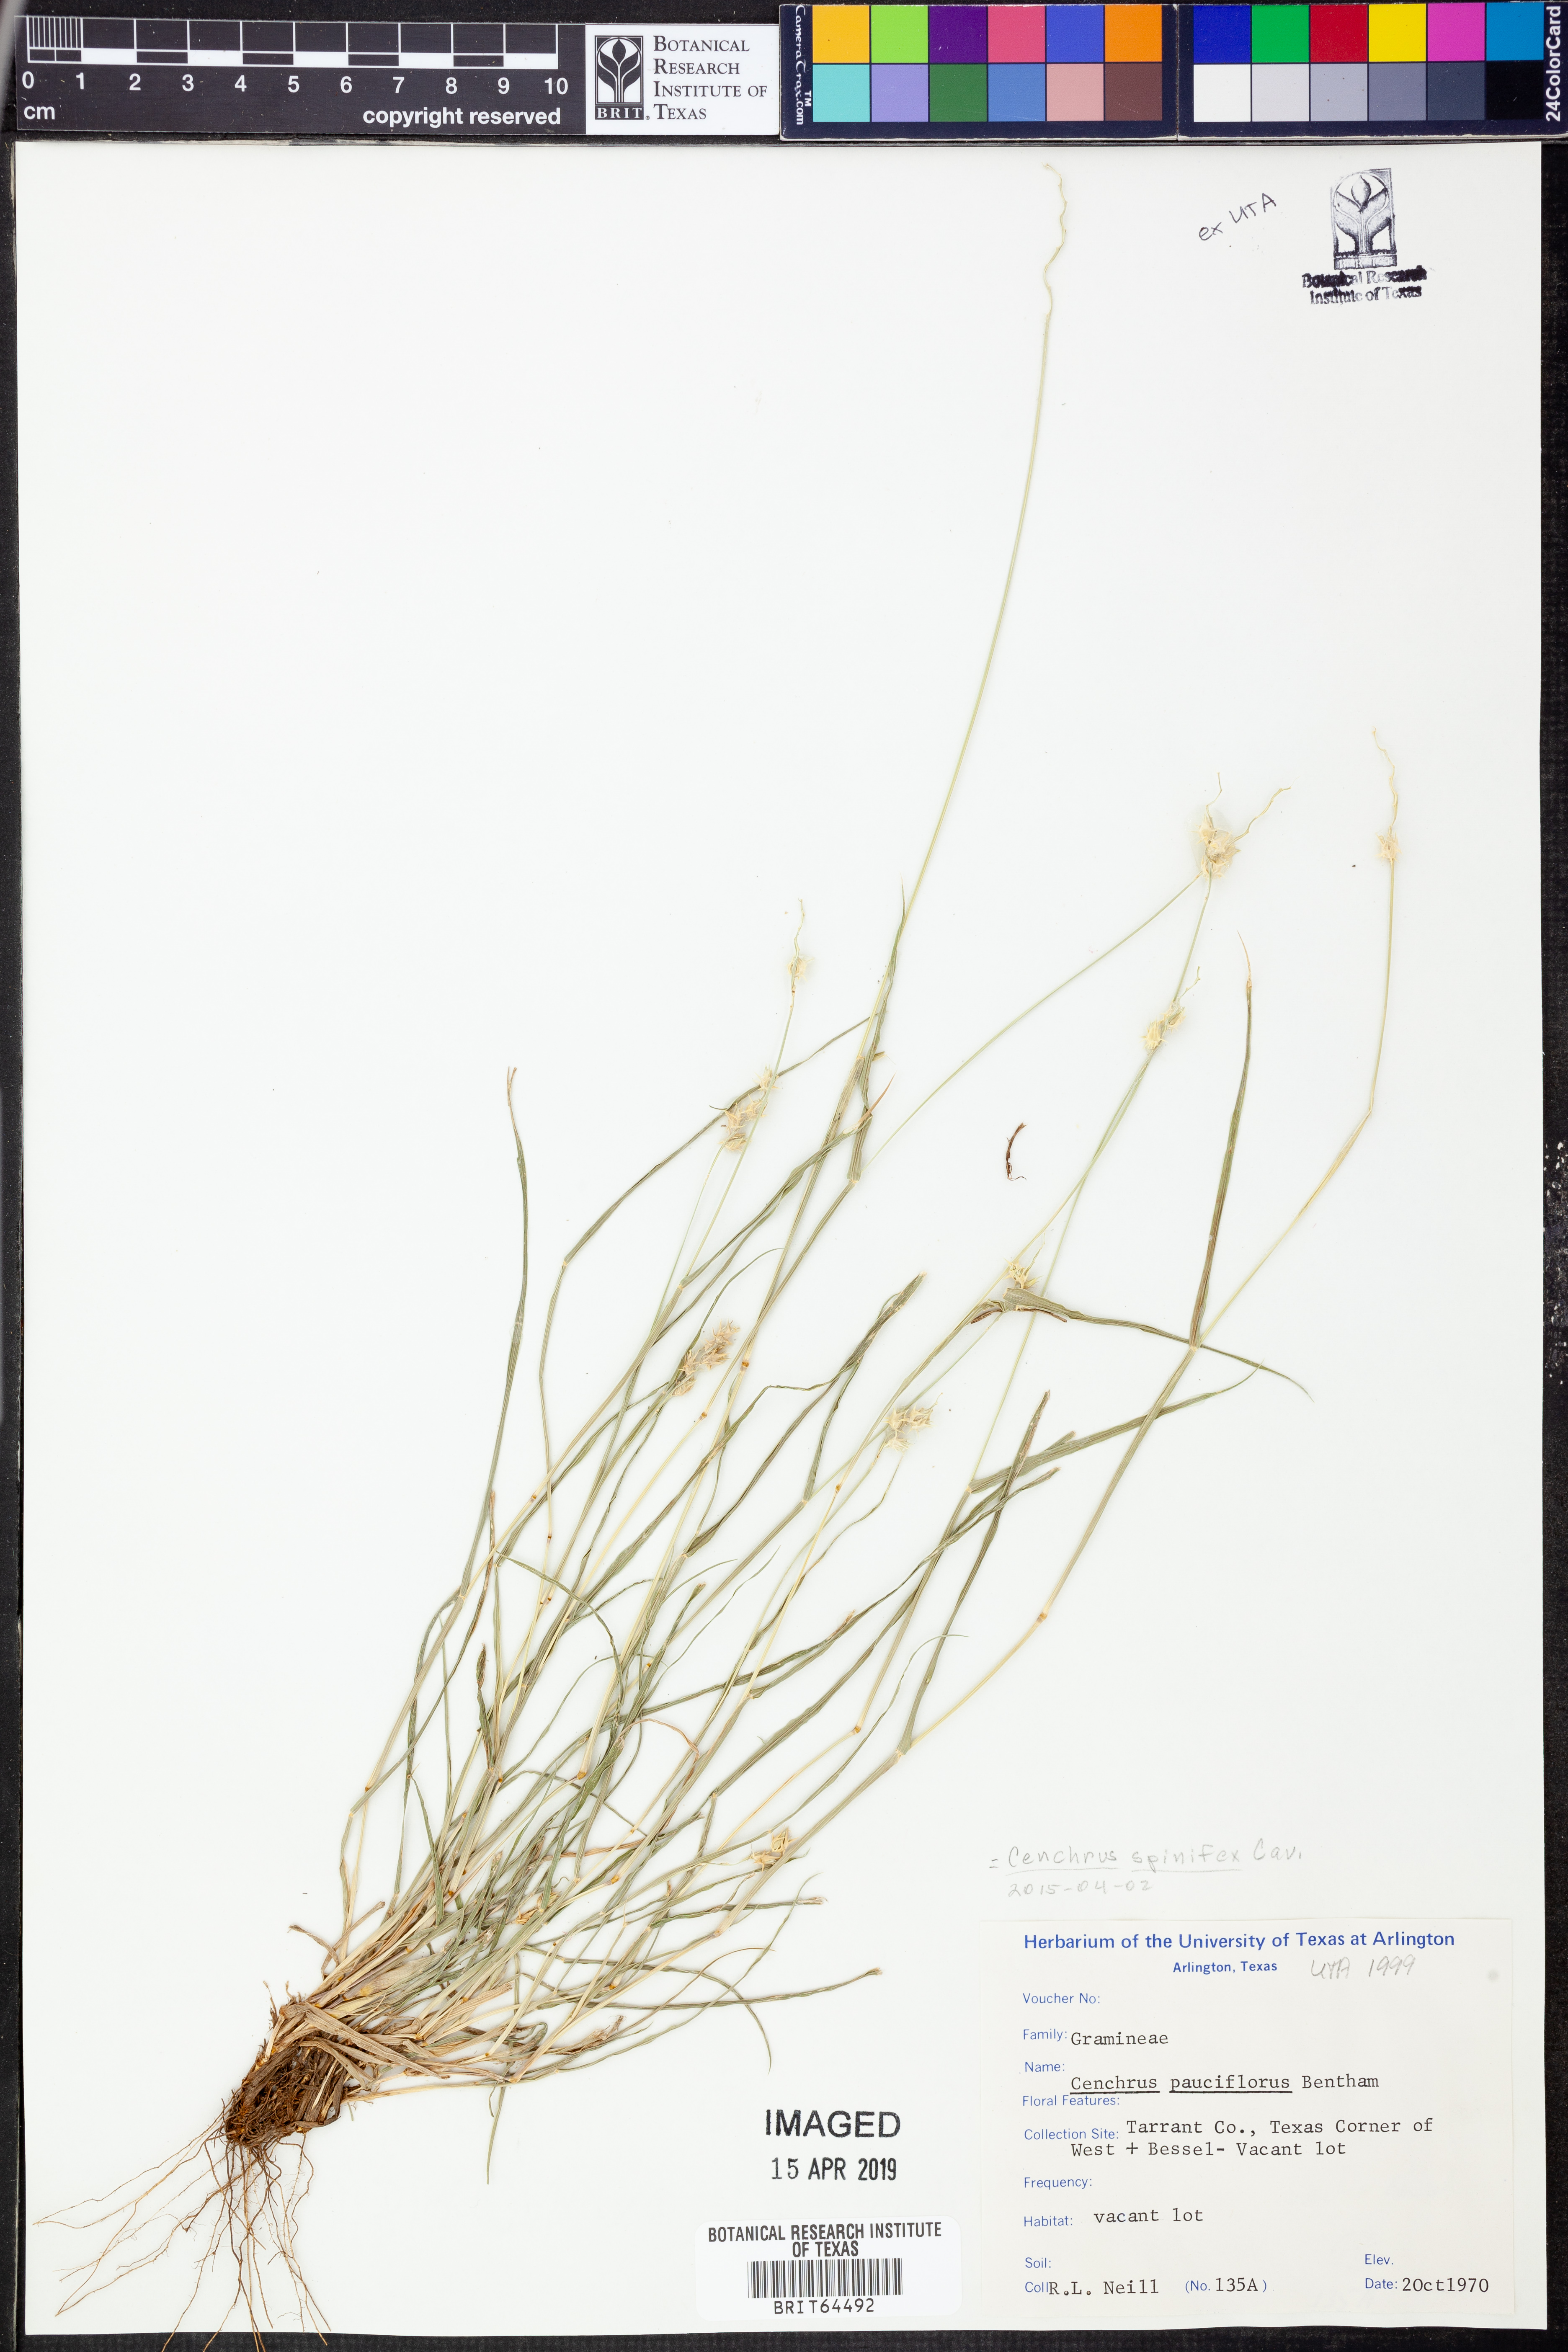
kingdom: Plantae
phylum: Tracheophyta
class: Liliopsida
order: Poales
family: Poaceae
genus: Cenchrus
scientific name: Cenchrus spinifex
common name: Coast sandbur
